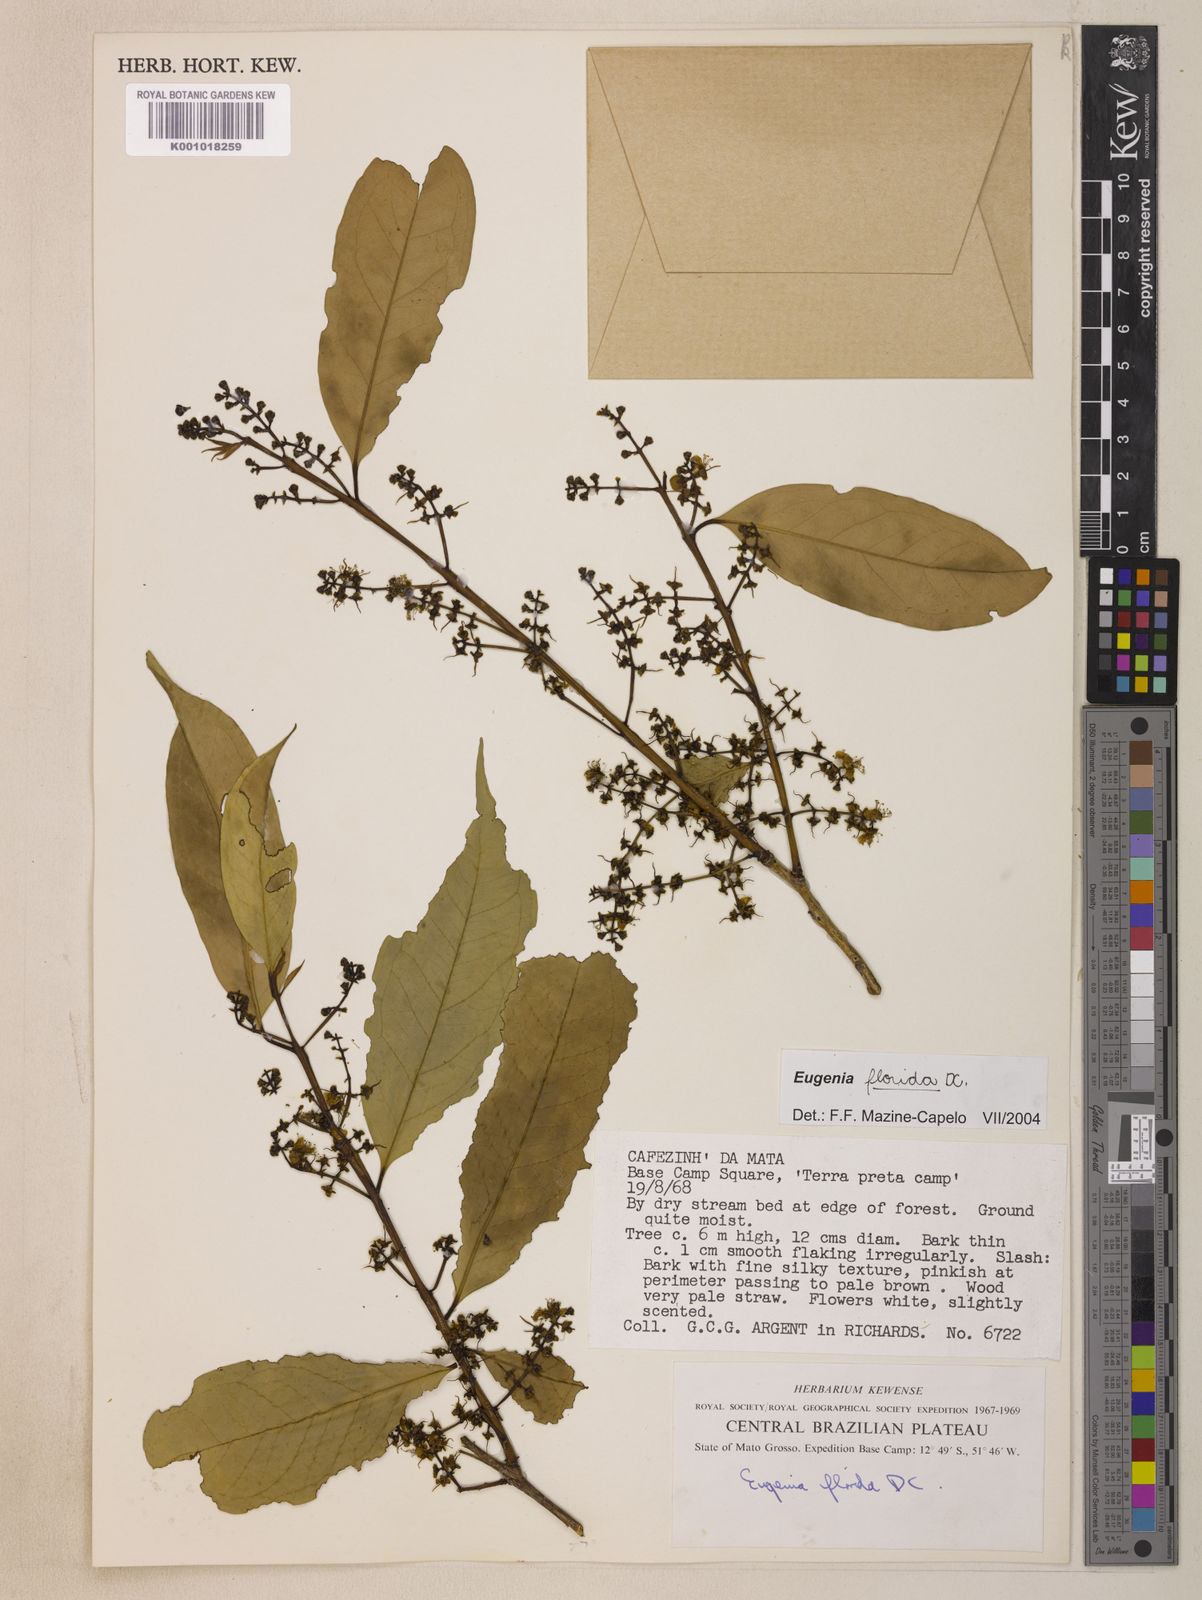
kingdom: Plantae
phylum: Tracheophyta
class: Magnoliopsida
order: Myrtales
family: Myrtaceae
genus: Eugenia
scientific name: Eugenia florida
